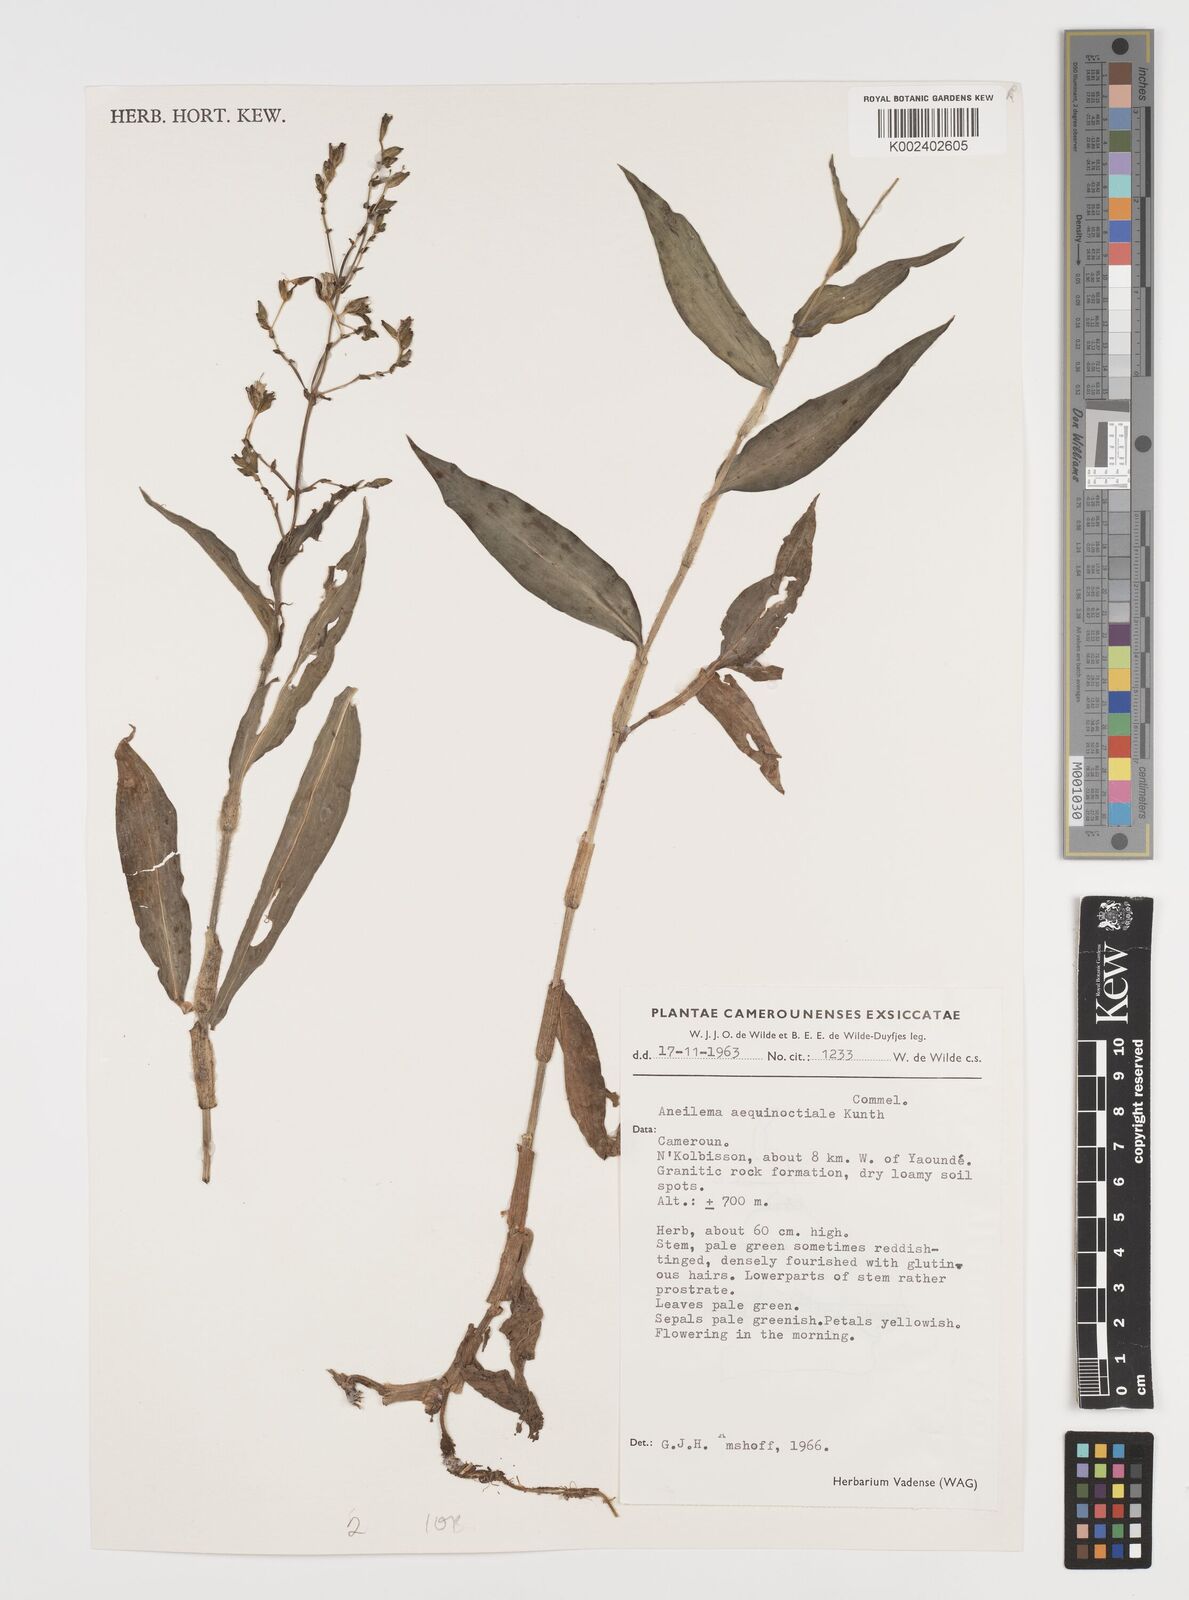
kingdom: Plantae
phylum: Tracheophyta
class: Liliopsida
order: Commelinales
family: Commelinaceae
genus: Aneilema
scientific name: Aneilema aequinoctiale
